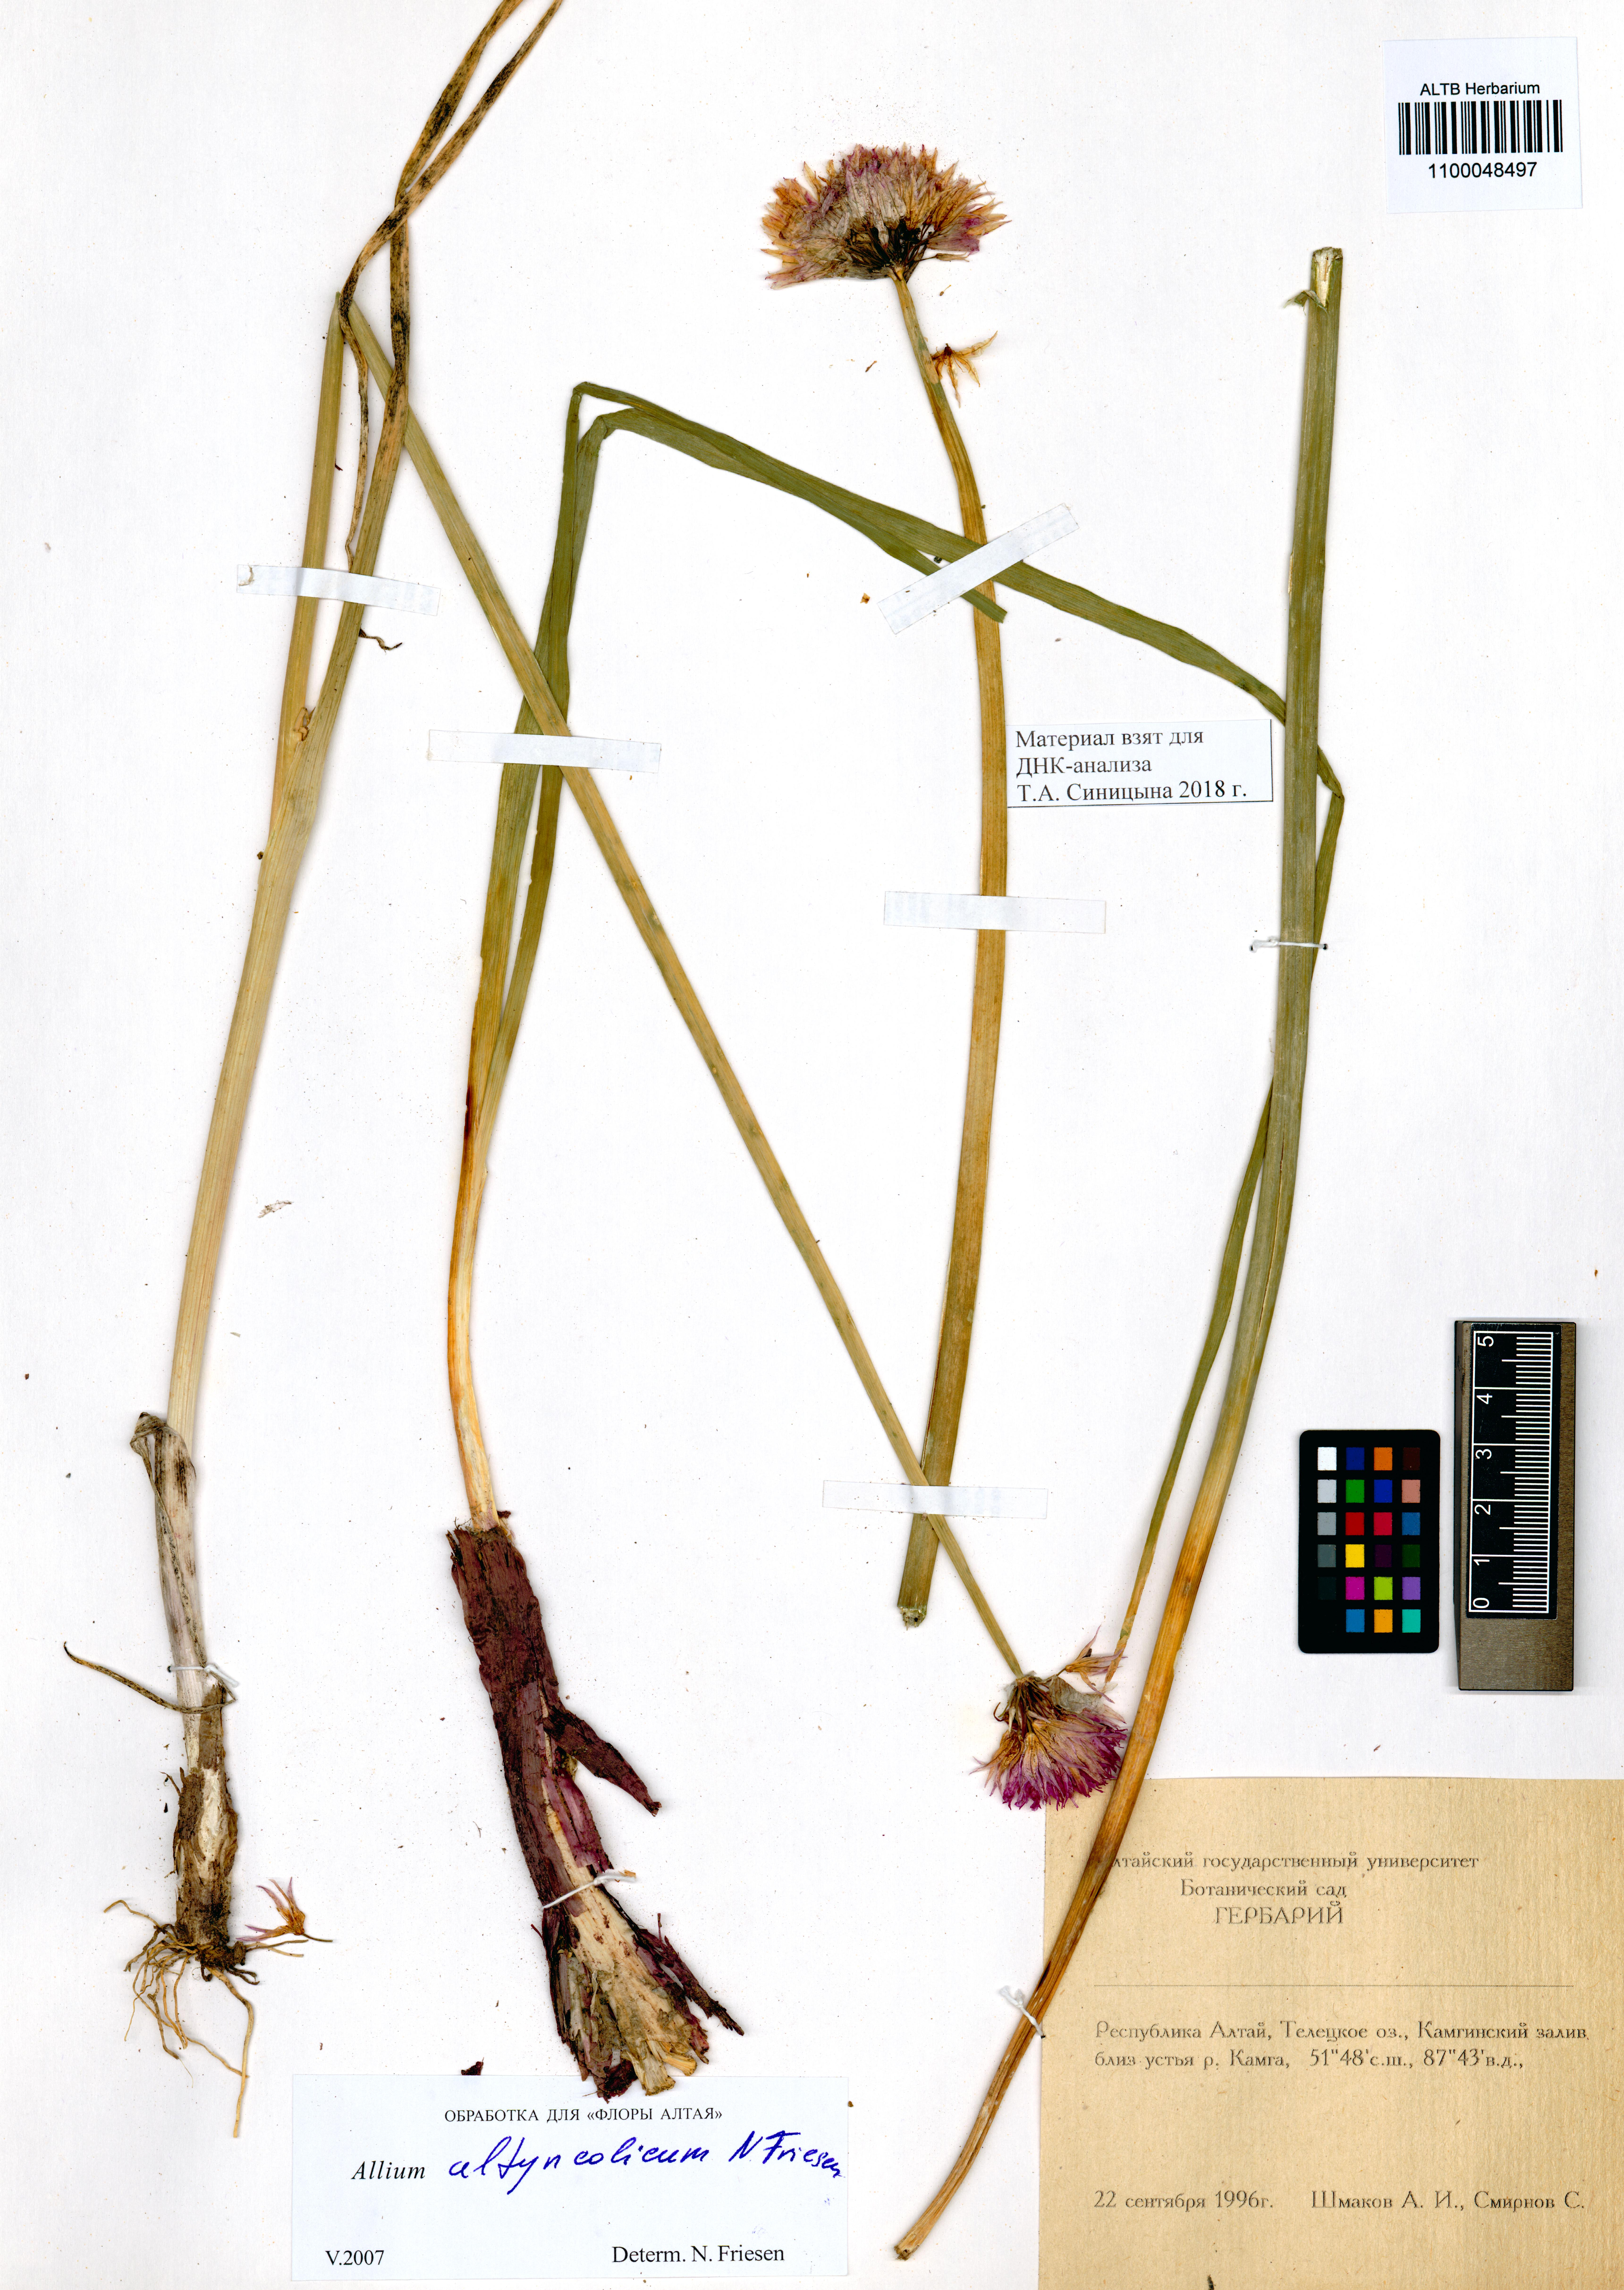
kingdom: Plantae
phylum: Tracheophyta
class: Liliopsida
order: Asparagales
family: Amaryllidaceae
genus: Allium
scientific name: Allium altyncolicum
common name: Altynkol chive
